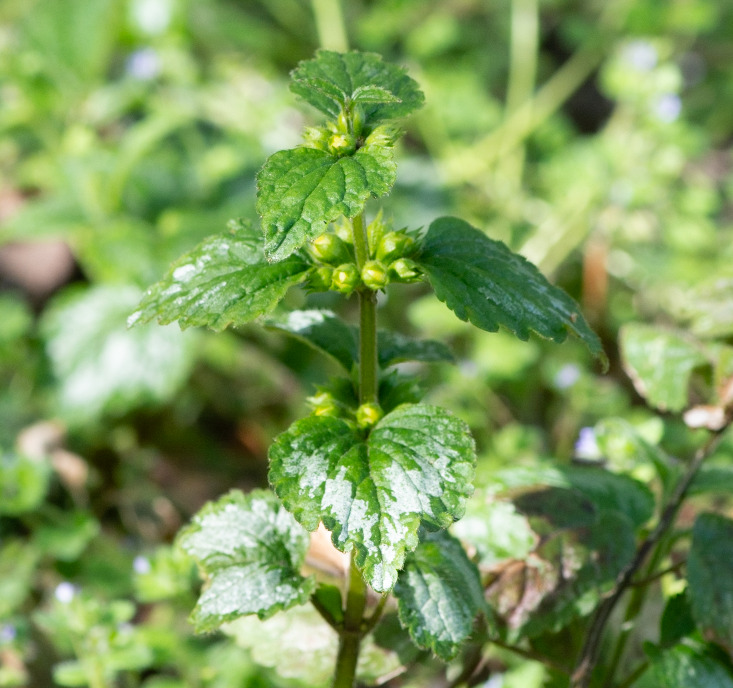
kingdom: Plantae
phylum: Tracheophyta
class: Magnoliopsida
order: Lamiales
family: Lamiaceae
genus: Lamium
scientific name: Lamium galeobdolon
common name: Have-guldnælde
